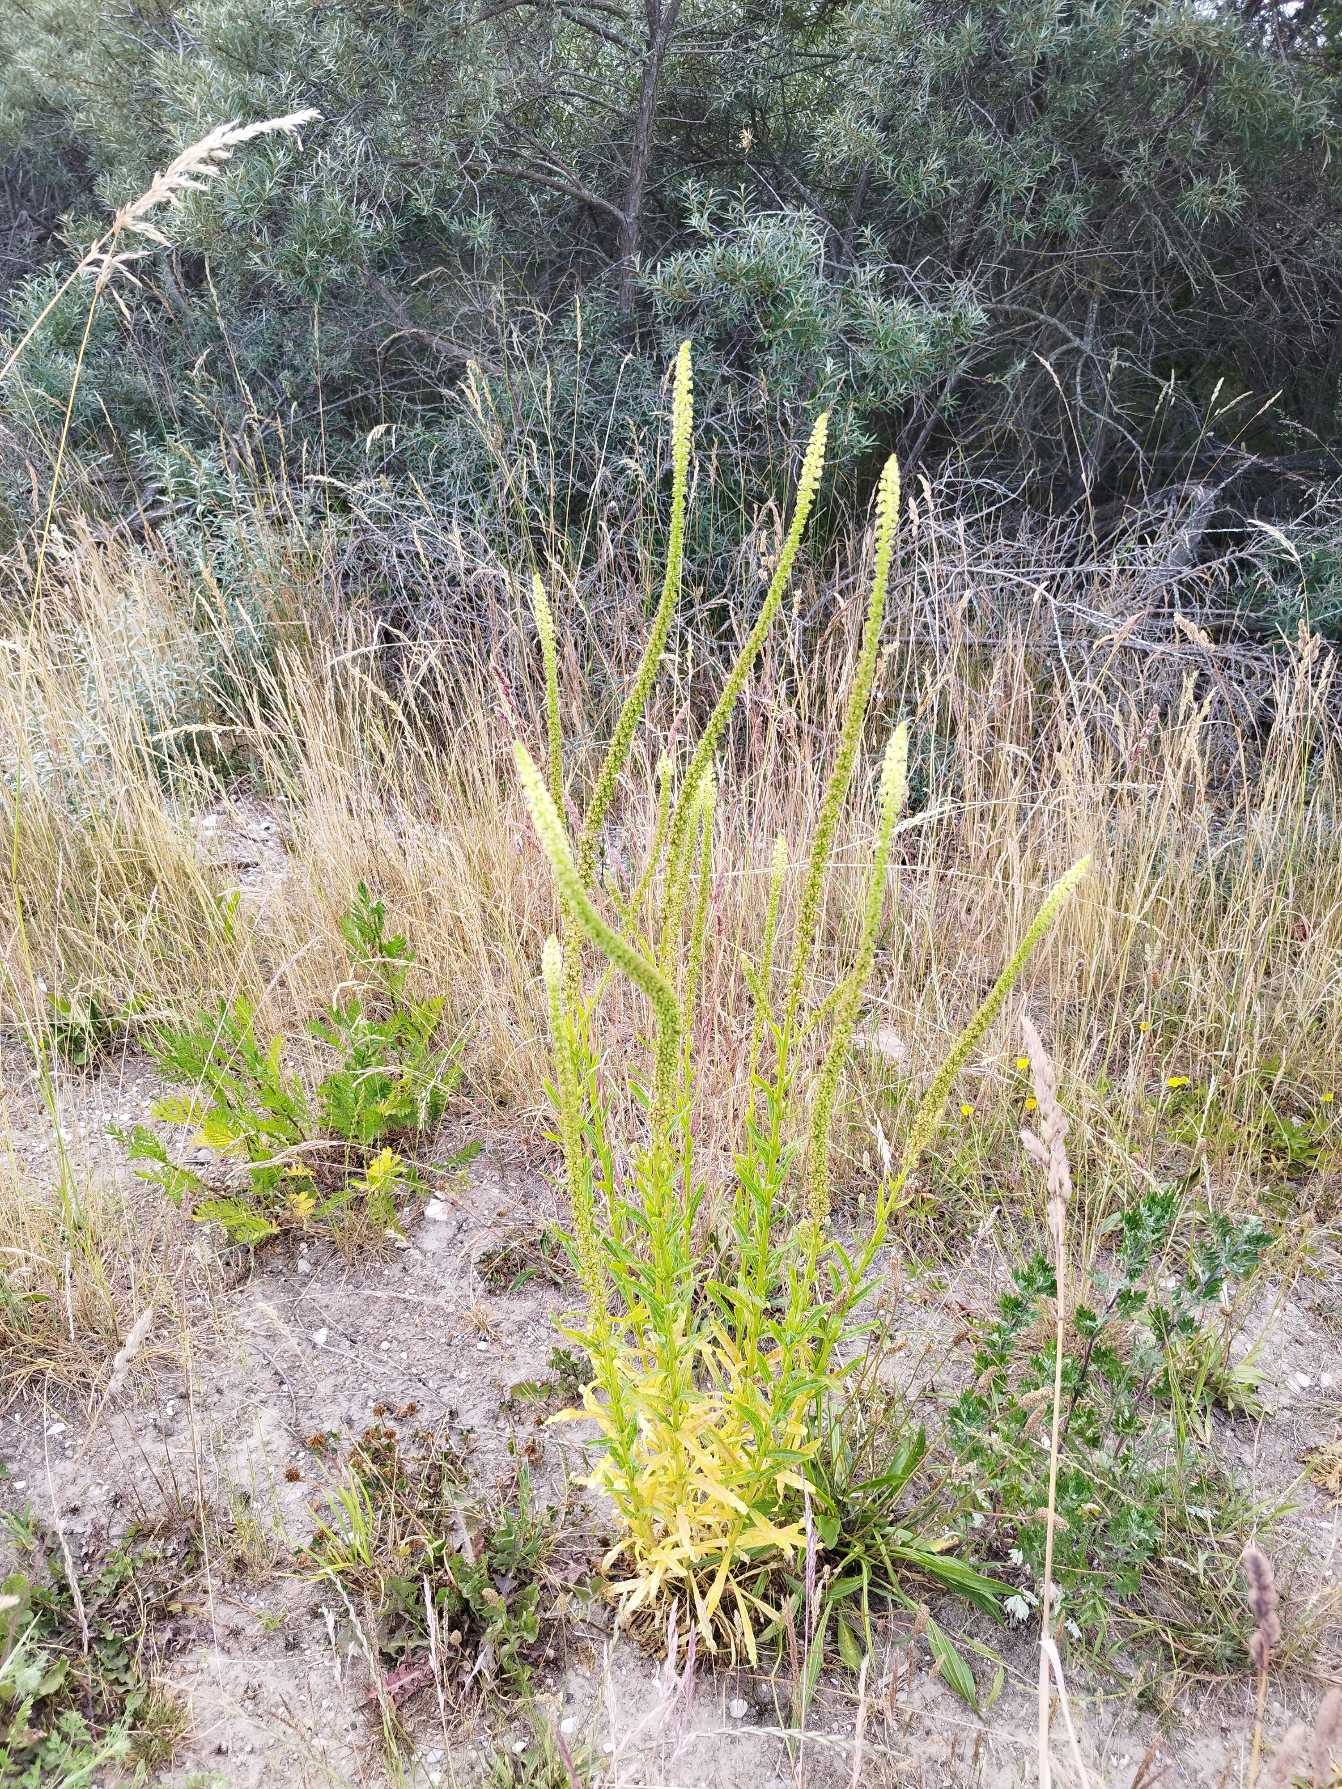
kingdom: Plantae
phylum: Tracheophyta
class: Magnoliopsida
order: Brassicales
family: Resedaceae
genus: Reseda
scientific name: Reseda luteola
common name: Farve-reseda
